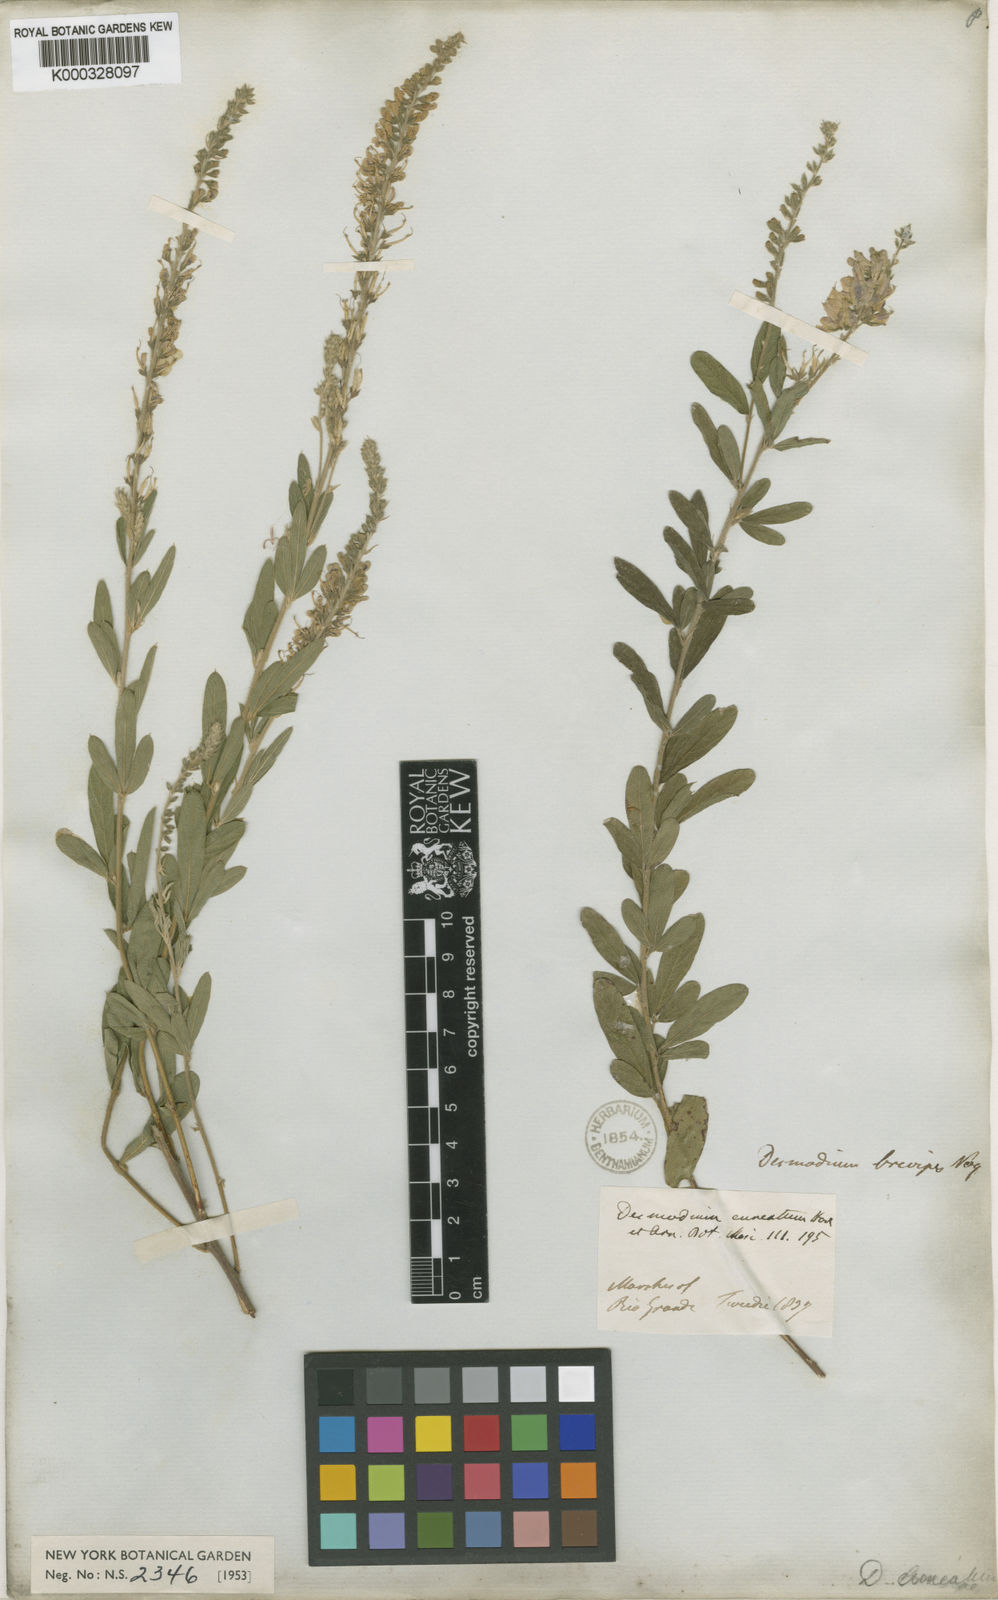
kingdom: Plantae
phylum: Tracheophyta
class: Magnoliopsida
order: Fabales
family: Fabaceae
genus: Desmodium
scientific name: Desmodium cuneatum
